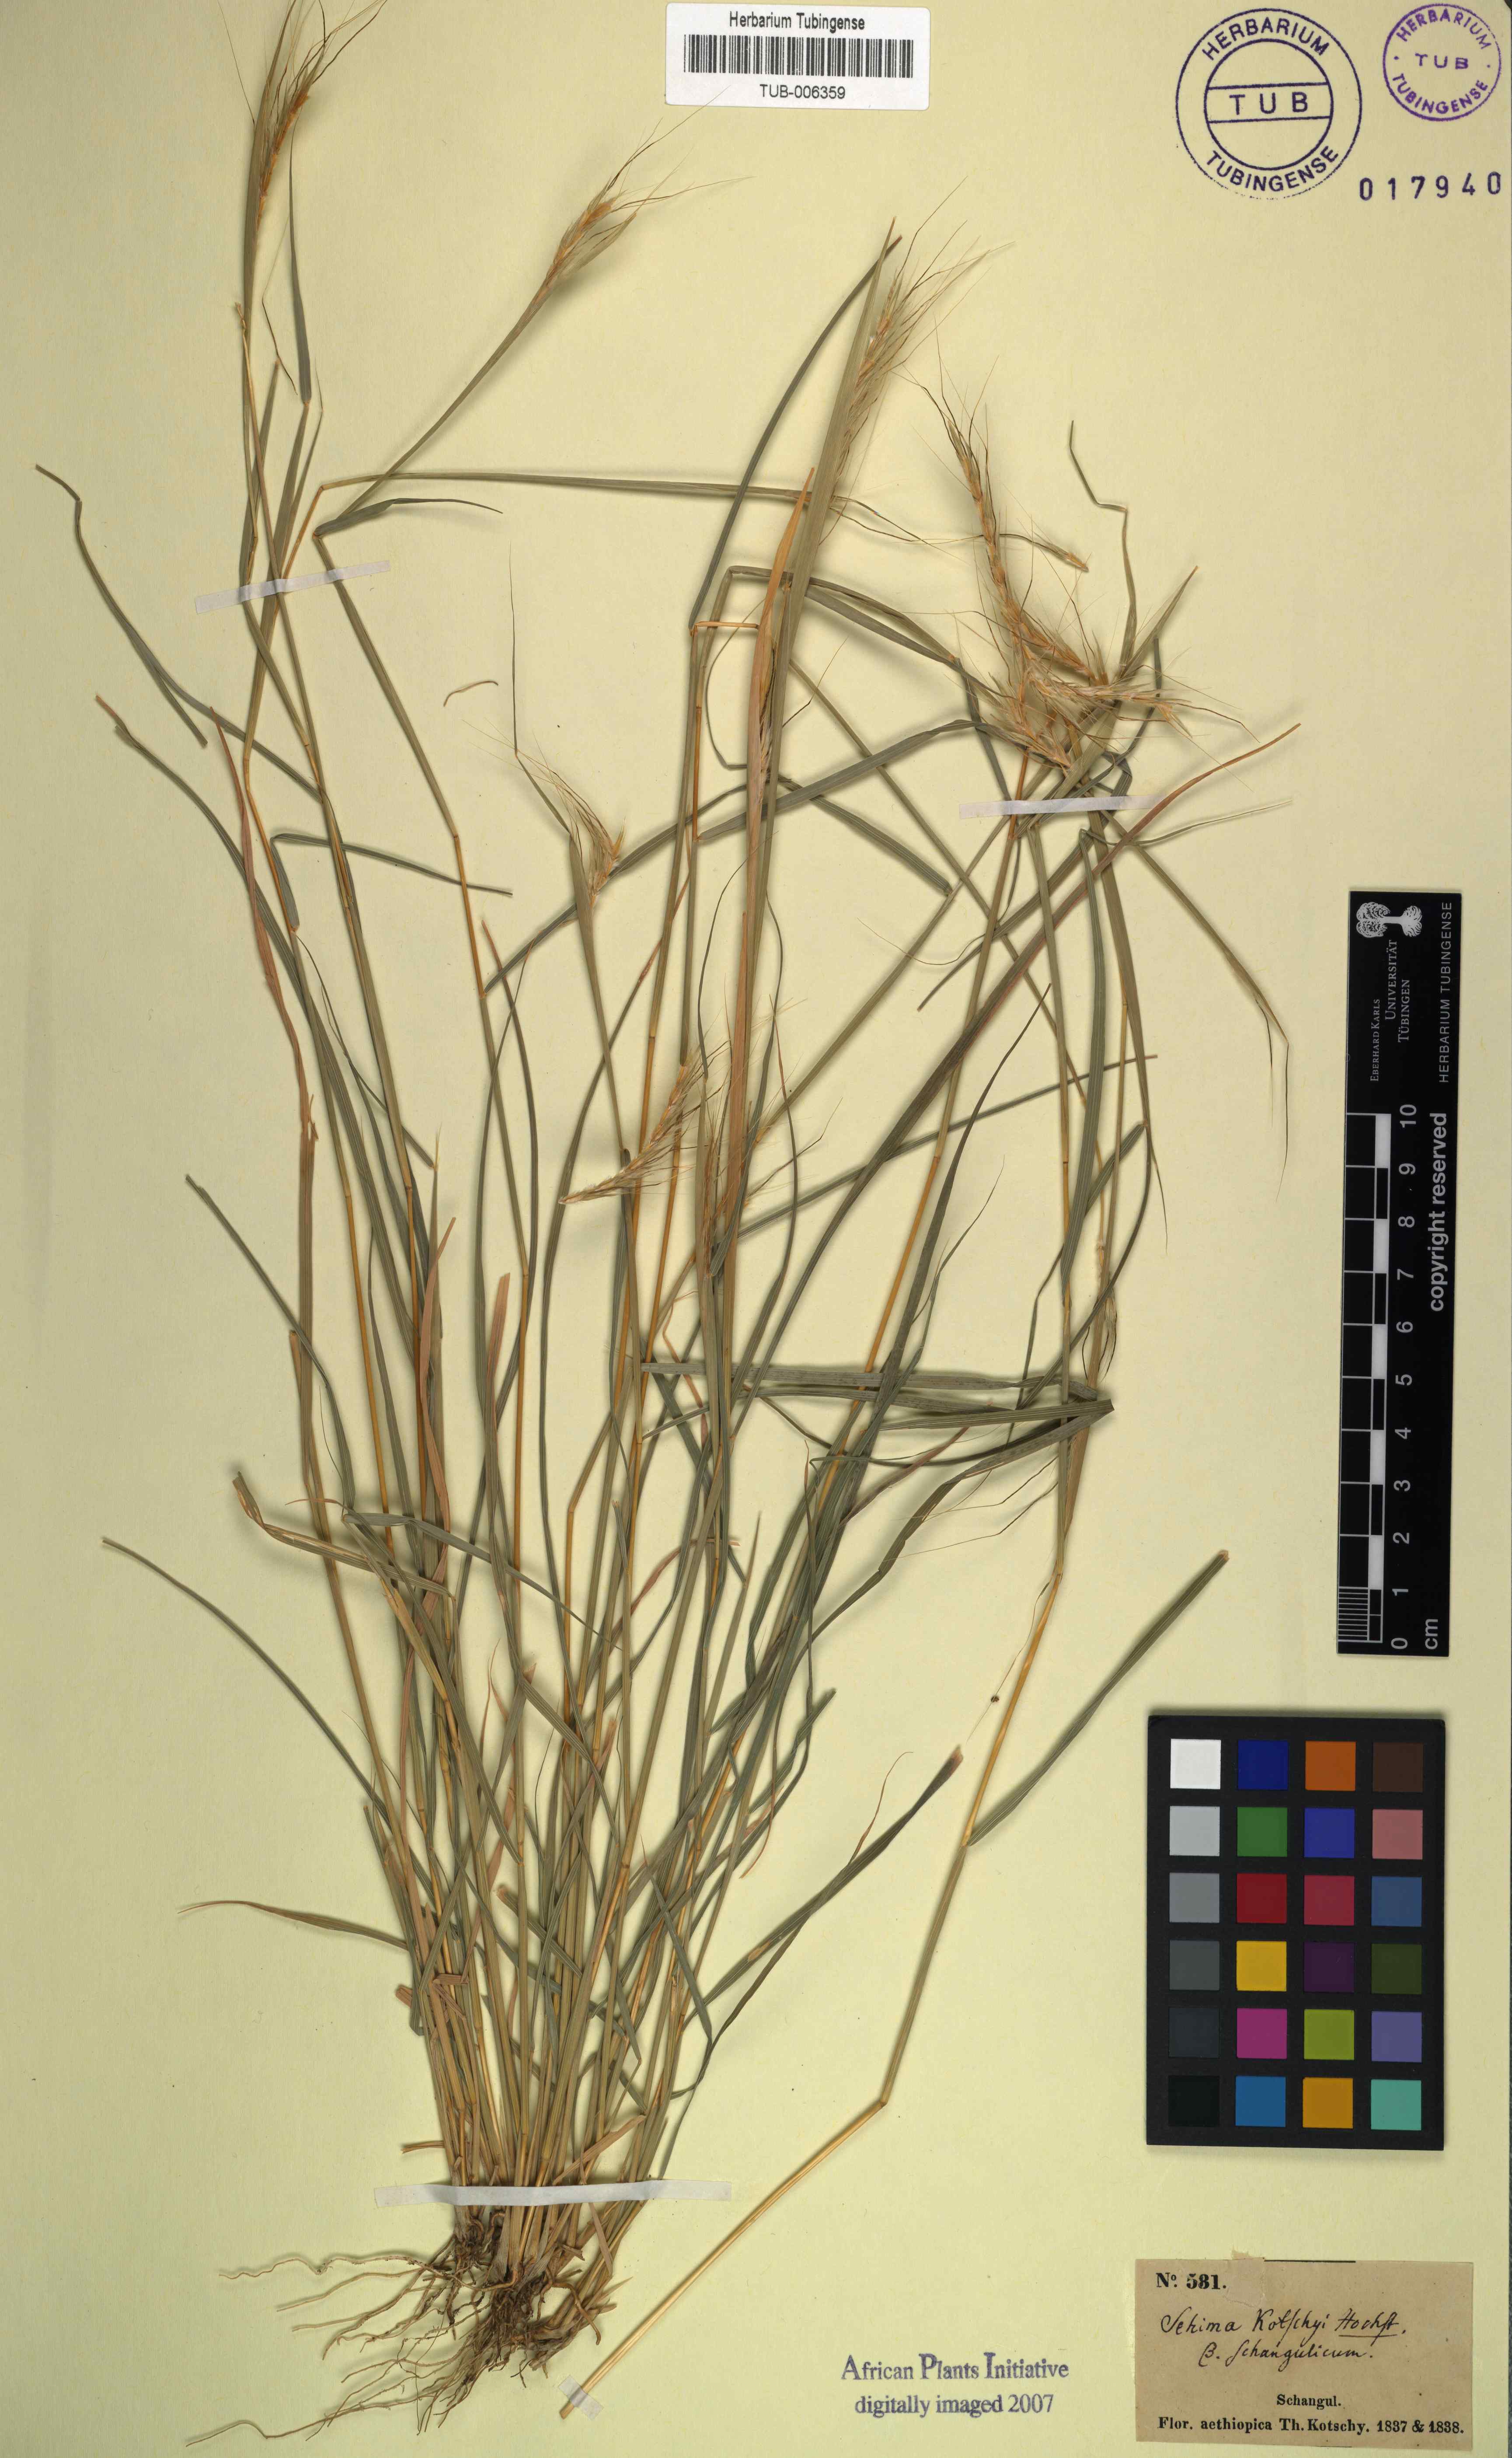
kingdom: Plantae
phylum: Tracheophyta
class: Liliopsida
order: Poales
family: Poaceae
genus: Sehima
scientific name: Sehima nervosa
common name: Rat-tail grass
